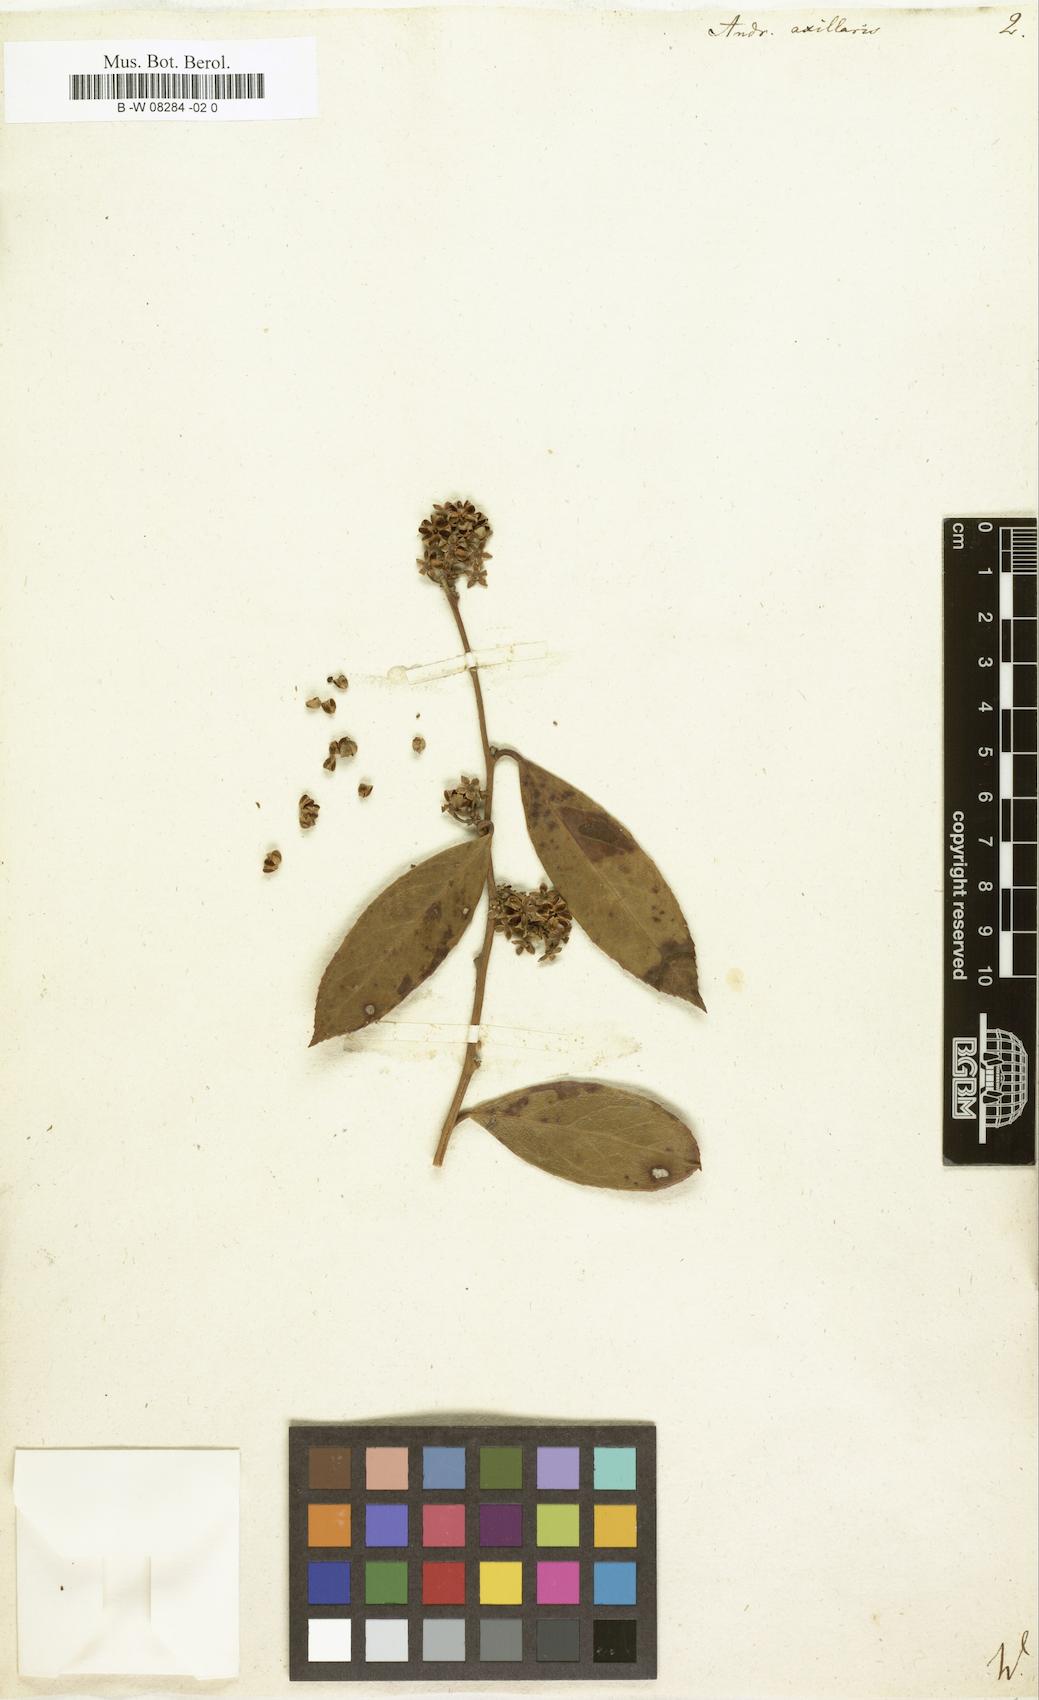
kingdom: Plantae
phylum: Tracheophyta
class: Magnoliopsida
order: Ericales
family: Ericaceae
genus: Leucothoe
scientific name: Leucothoe axillaris
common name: Leucothoe
